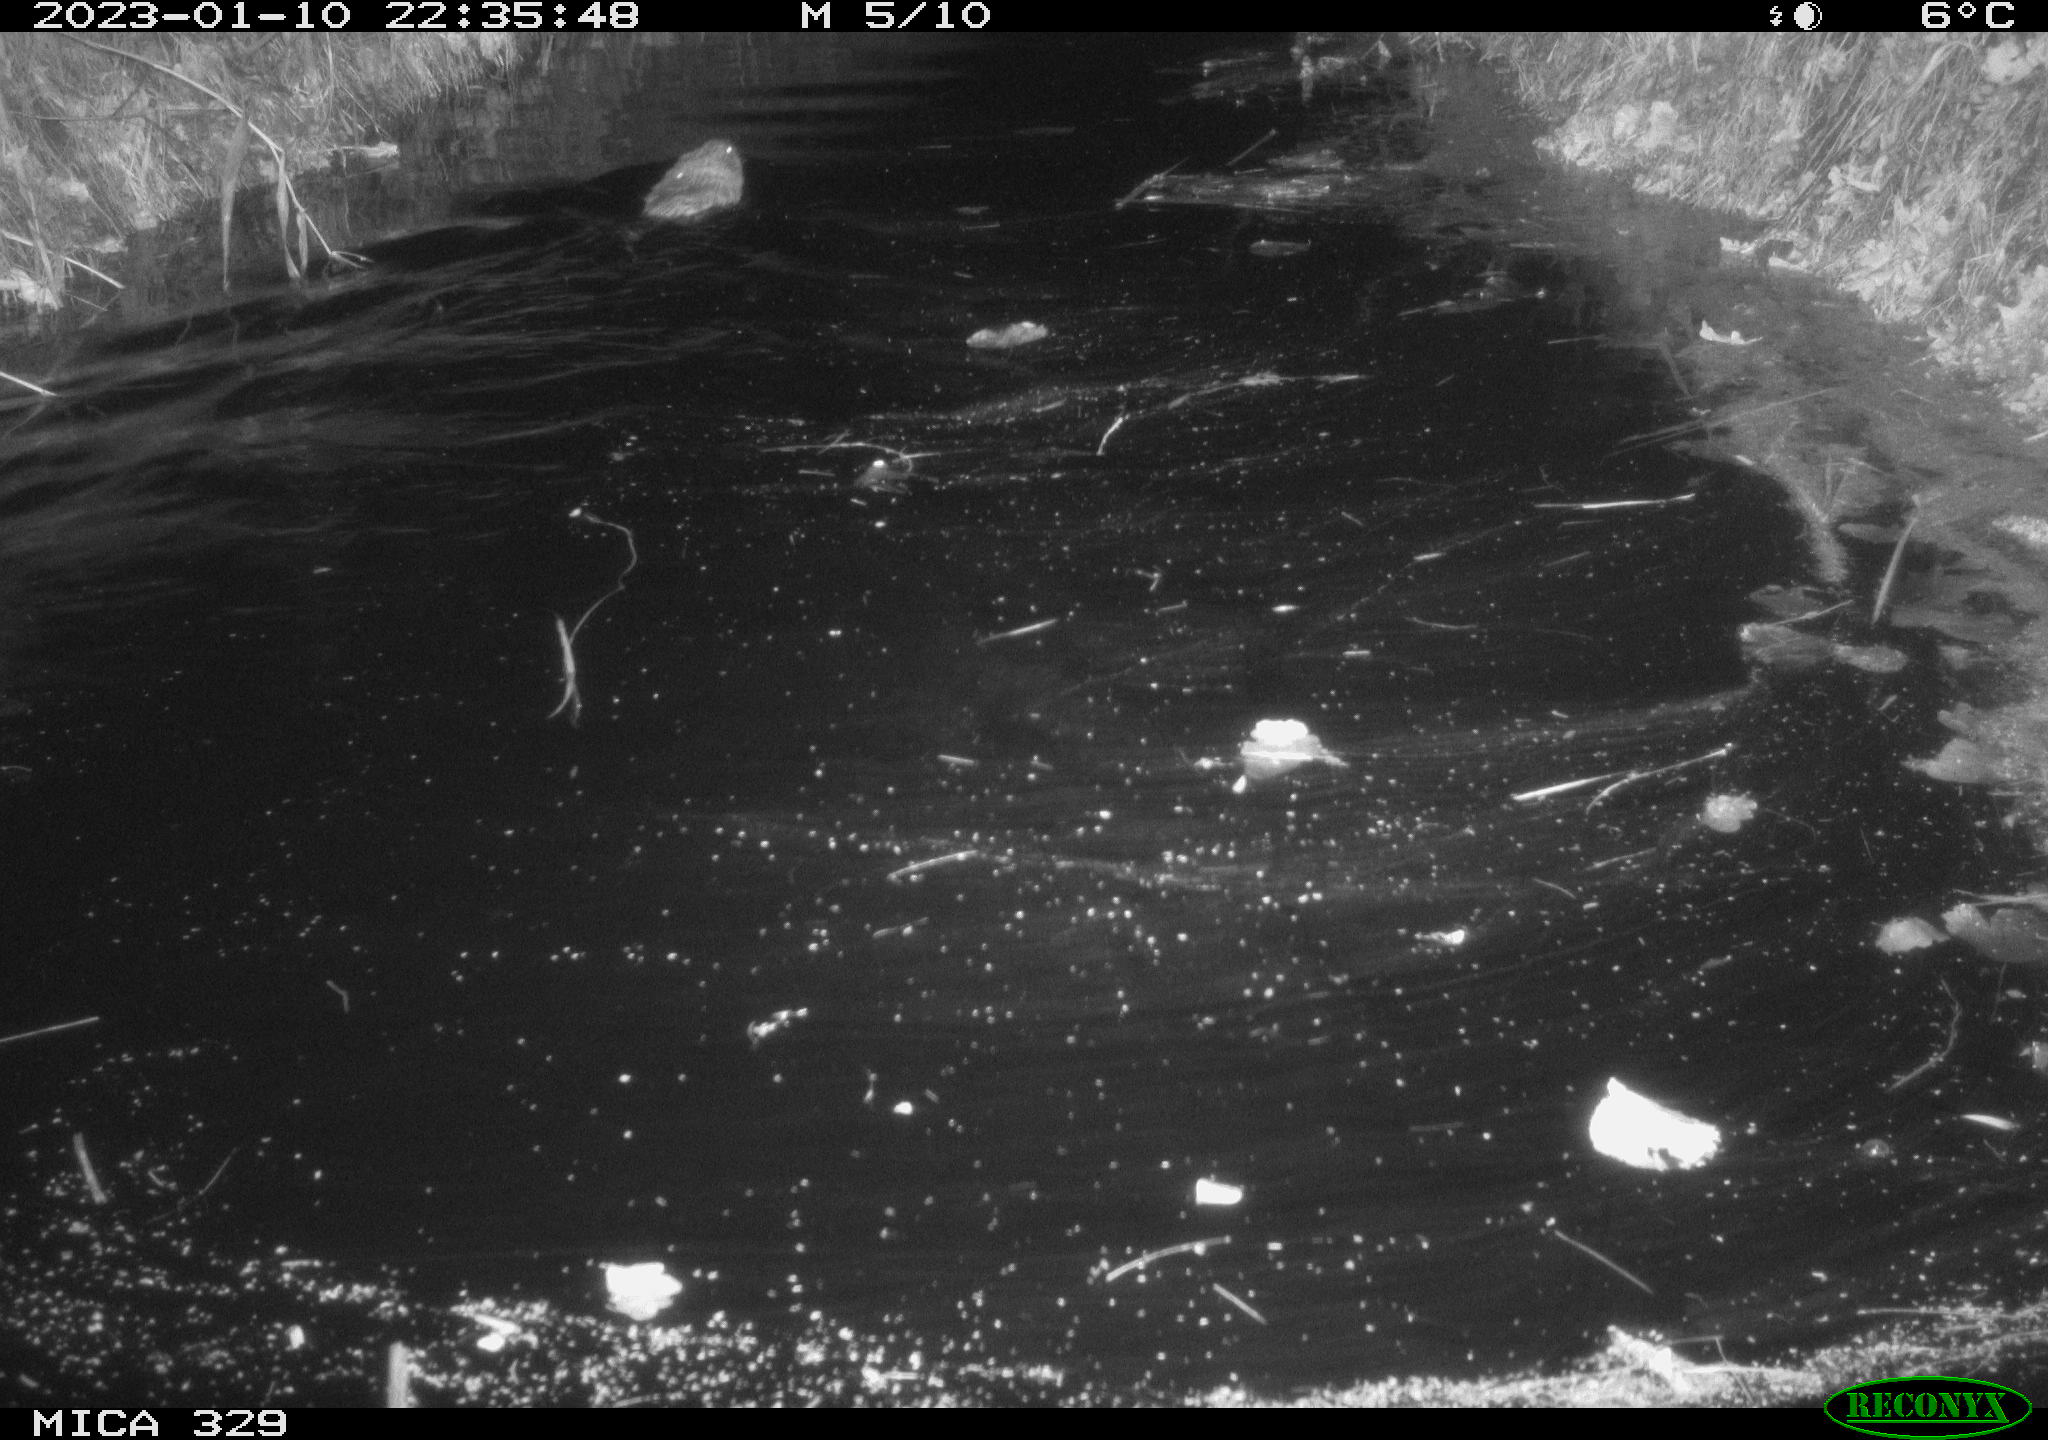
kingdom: Animalia
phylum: Chordata
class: Mammalia
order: Rodentia
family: Cricetidae
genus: Ondatra
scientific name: Ondatra zibethicus
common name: Muskrat
